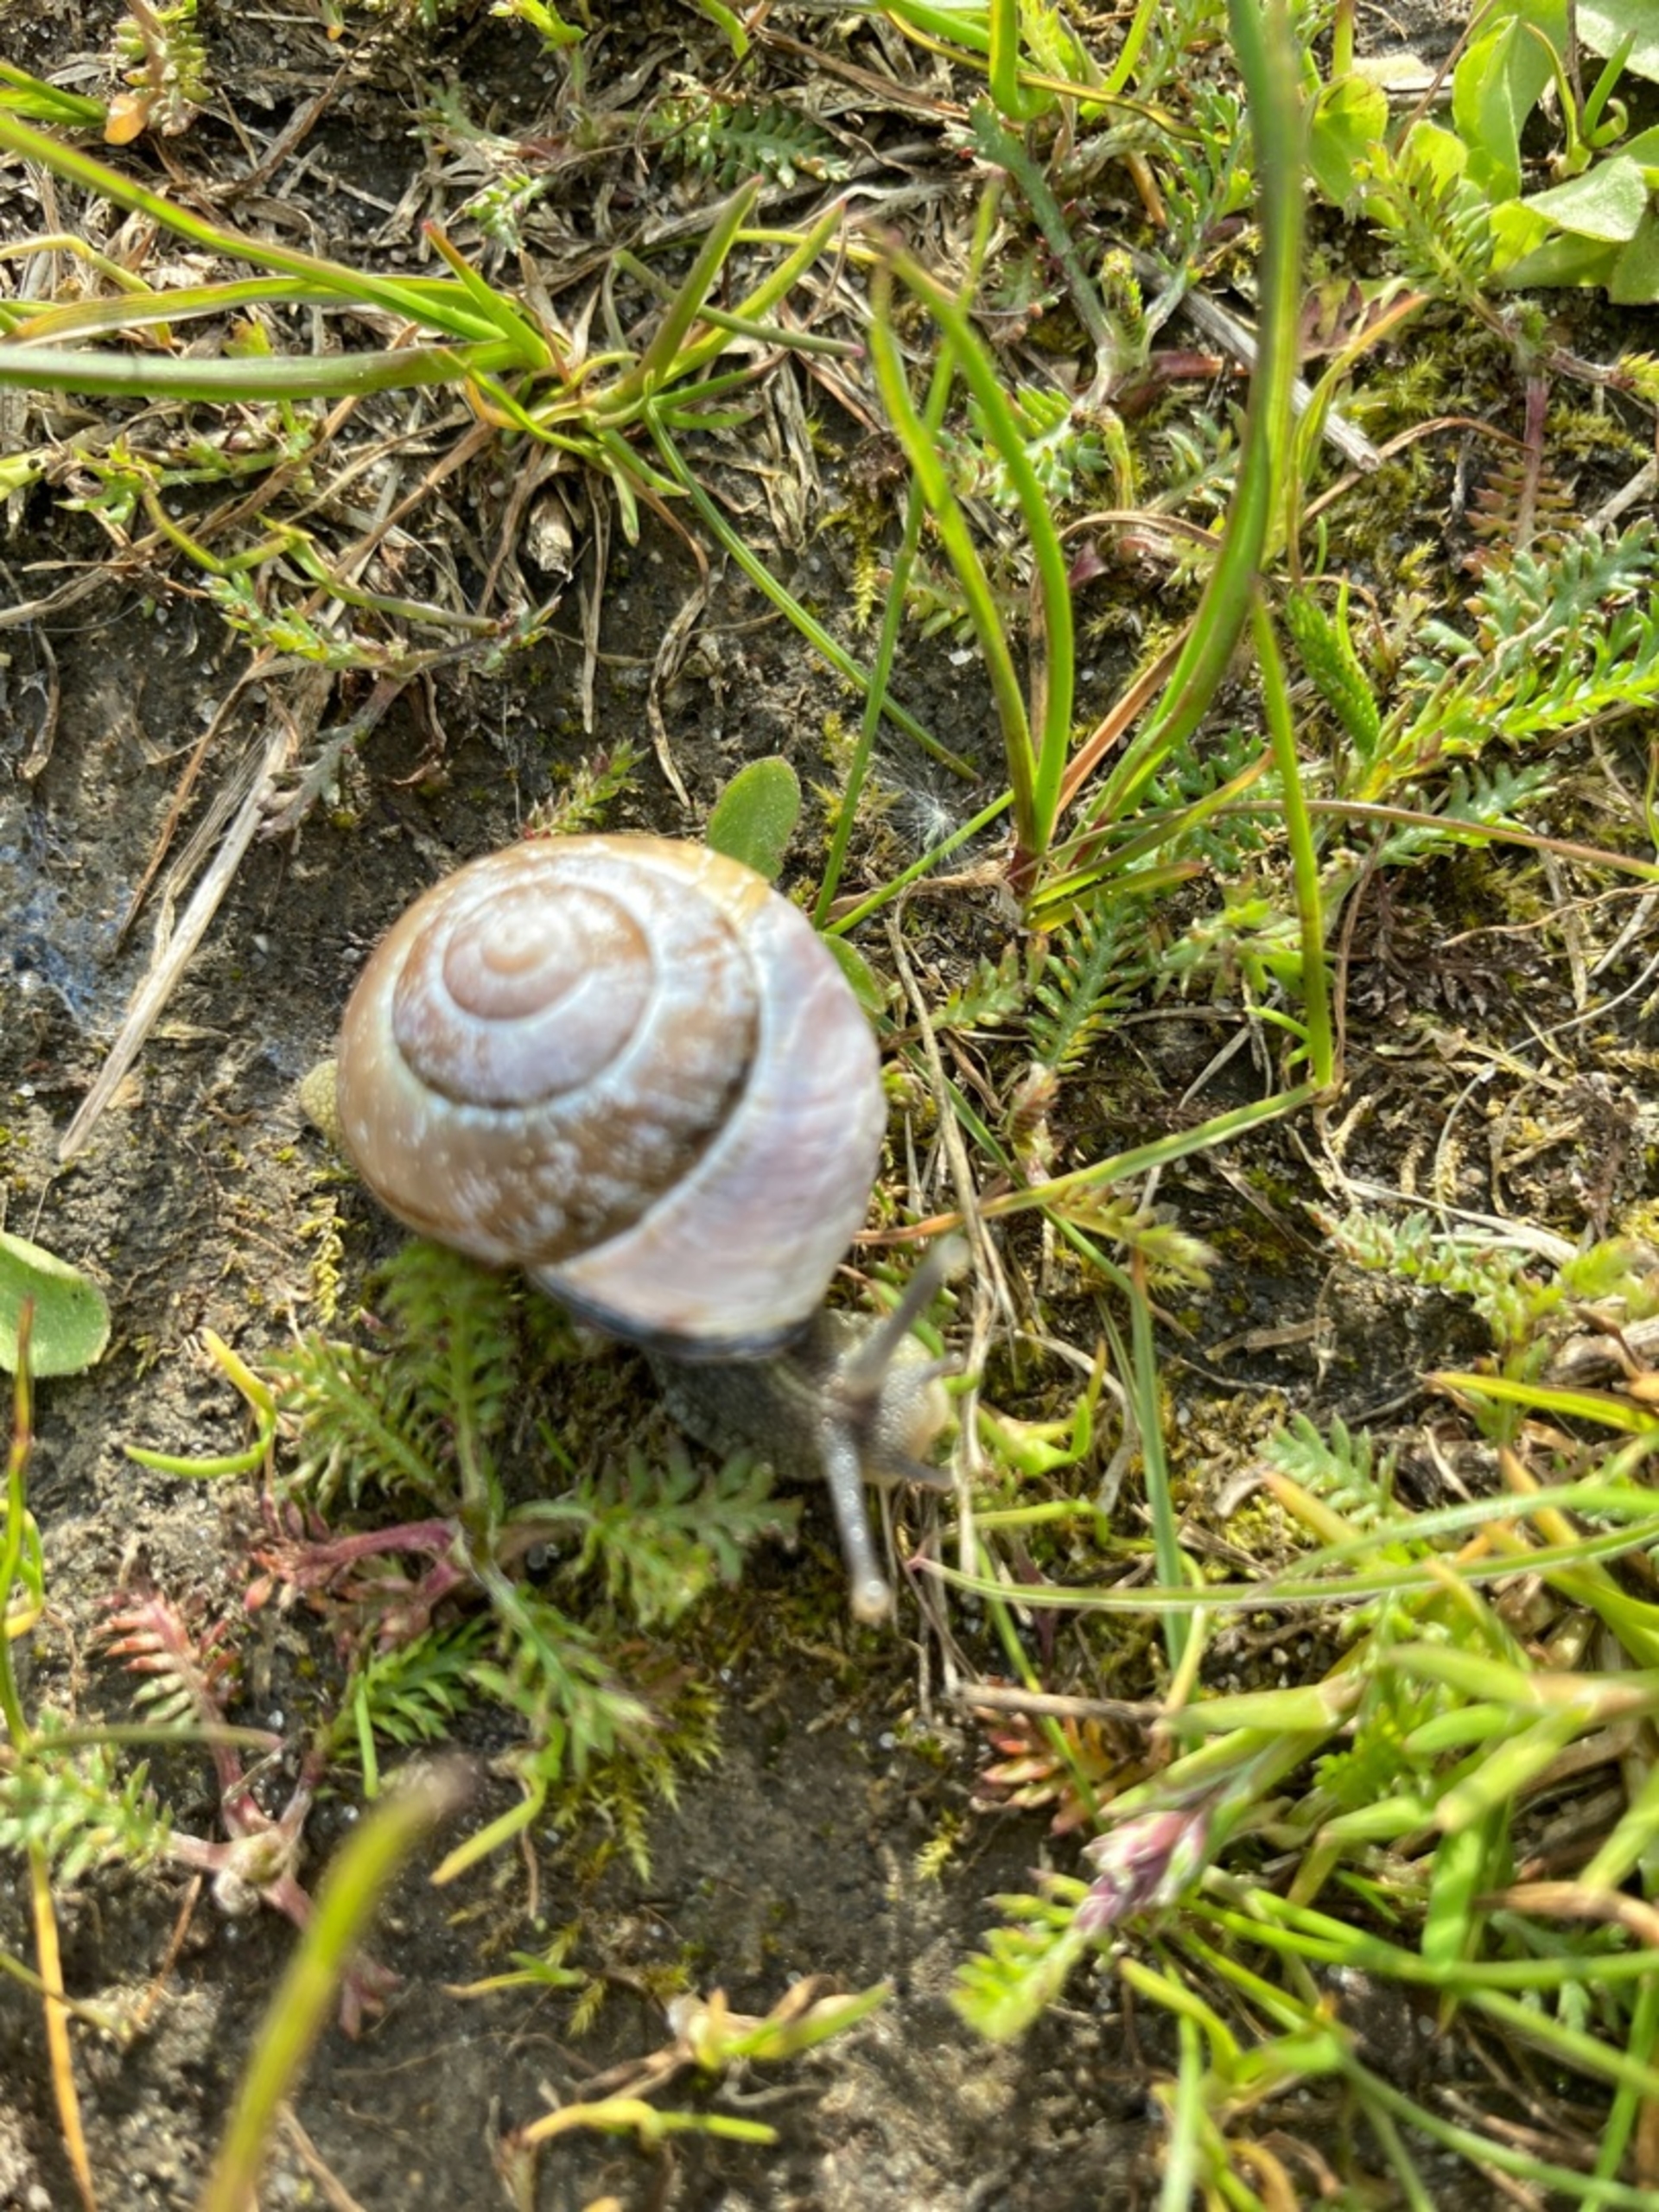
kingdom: Animalia
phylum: Mollusca
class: Gastropoda
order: Stylommatophora
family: Helicidae
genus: Cepaea
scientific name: Cepaea nemoralis
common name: Lundsnegl
